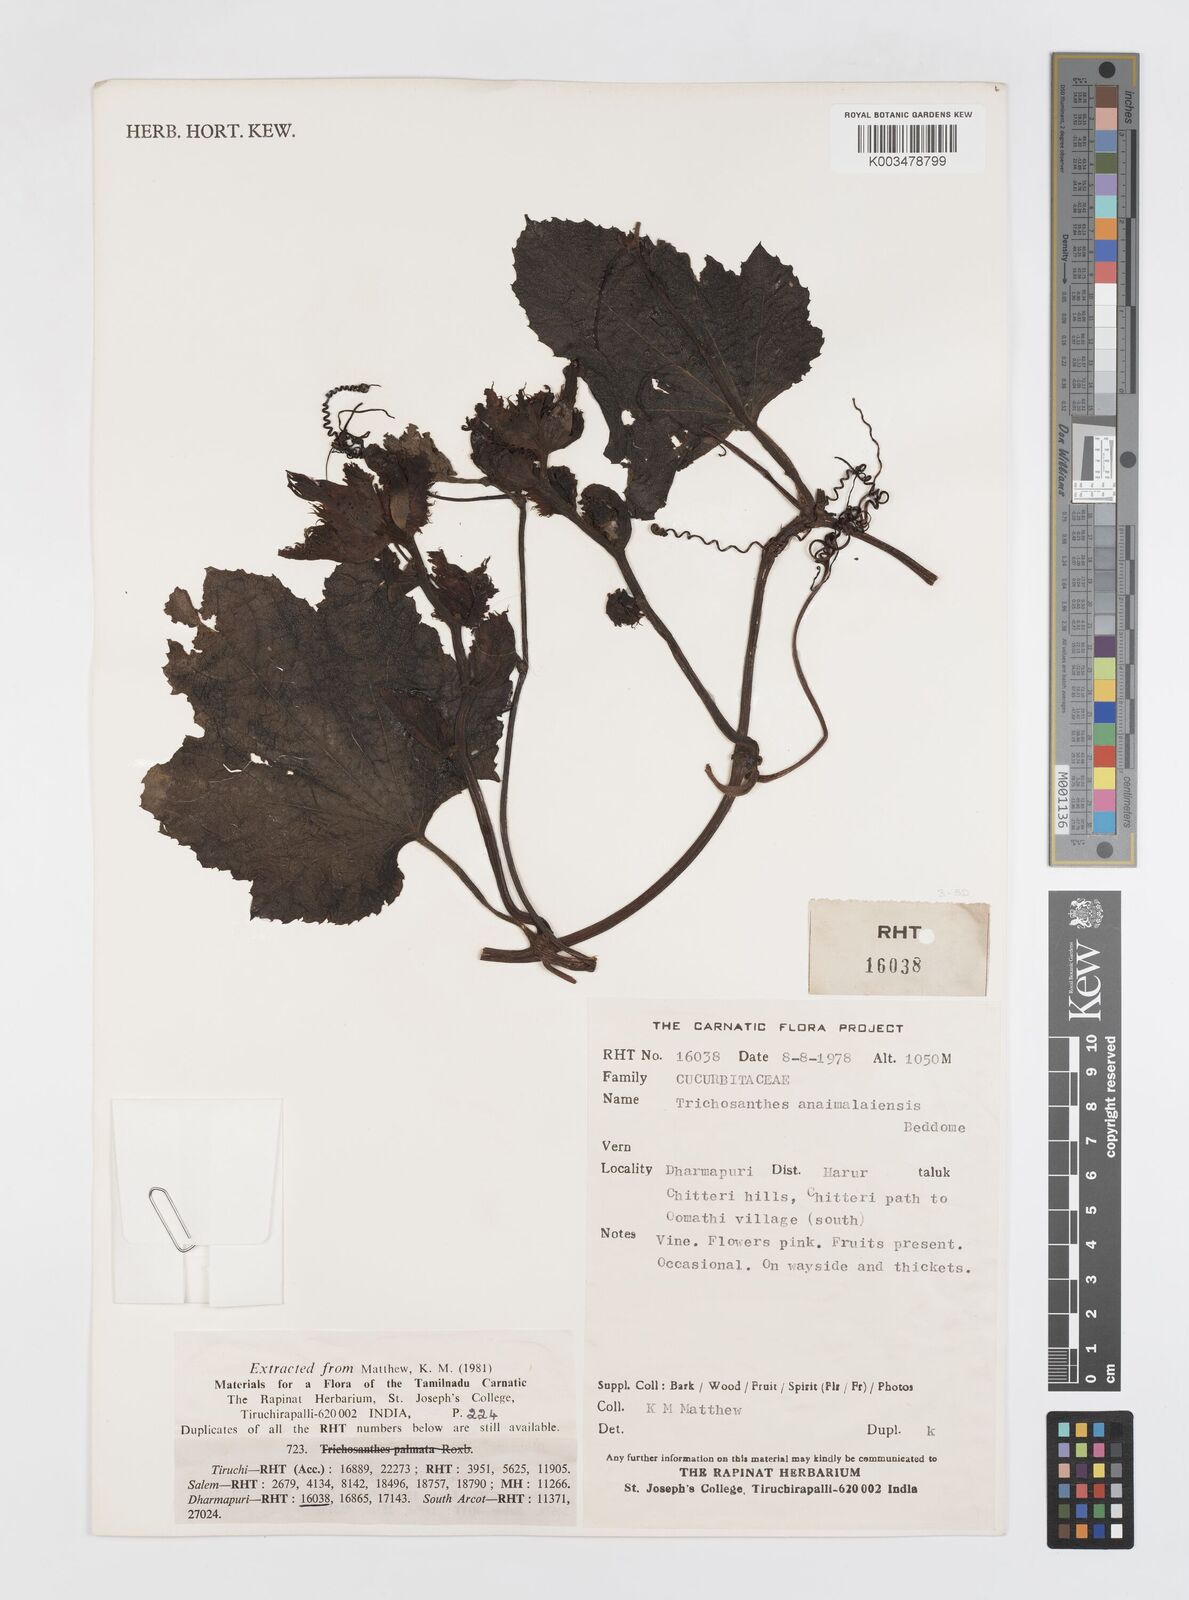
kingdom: Plantae
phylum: Tracheophyta
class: Magnoliopsida
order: Cucurbitales
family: Cucurbitaceae
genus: Trichosanthes
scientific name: Trichosanthes anaimalaiensis
